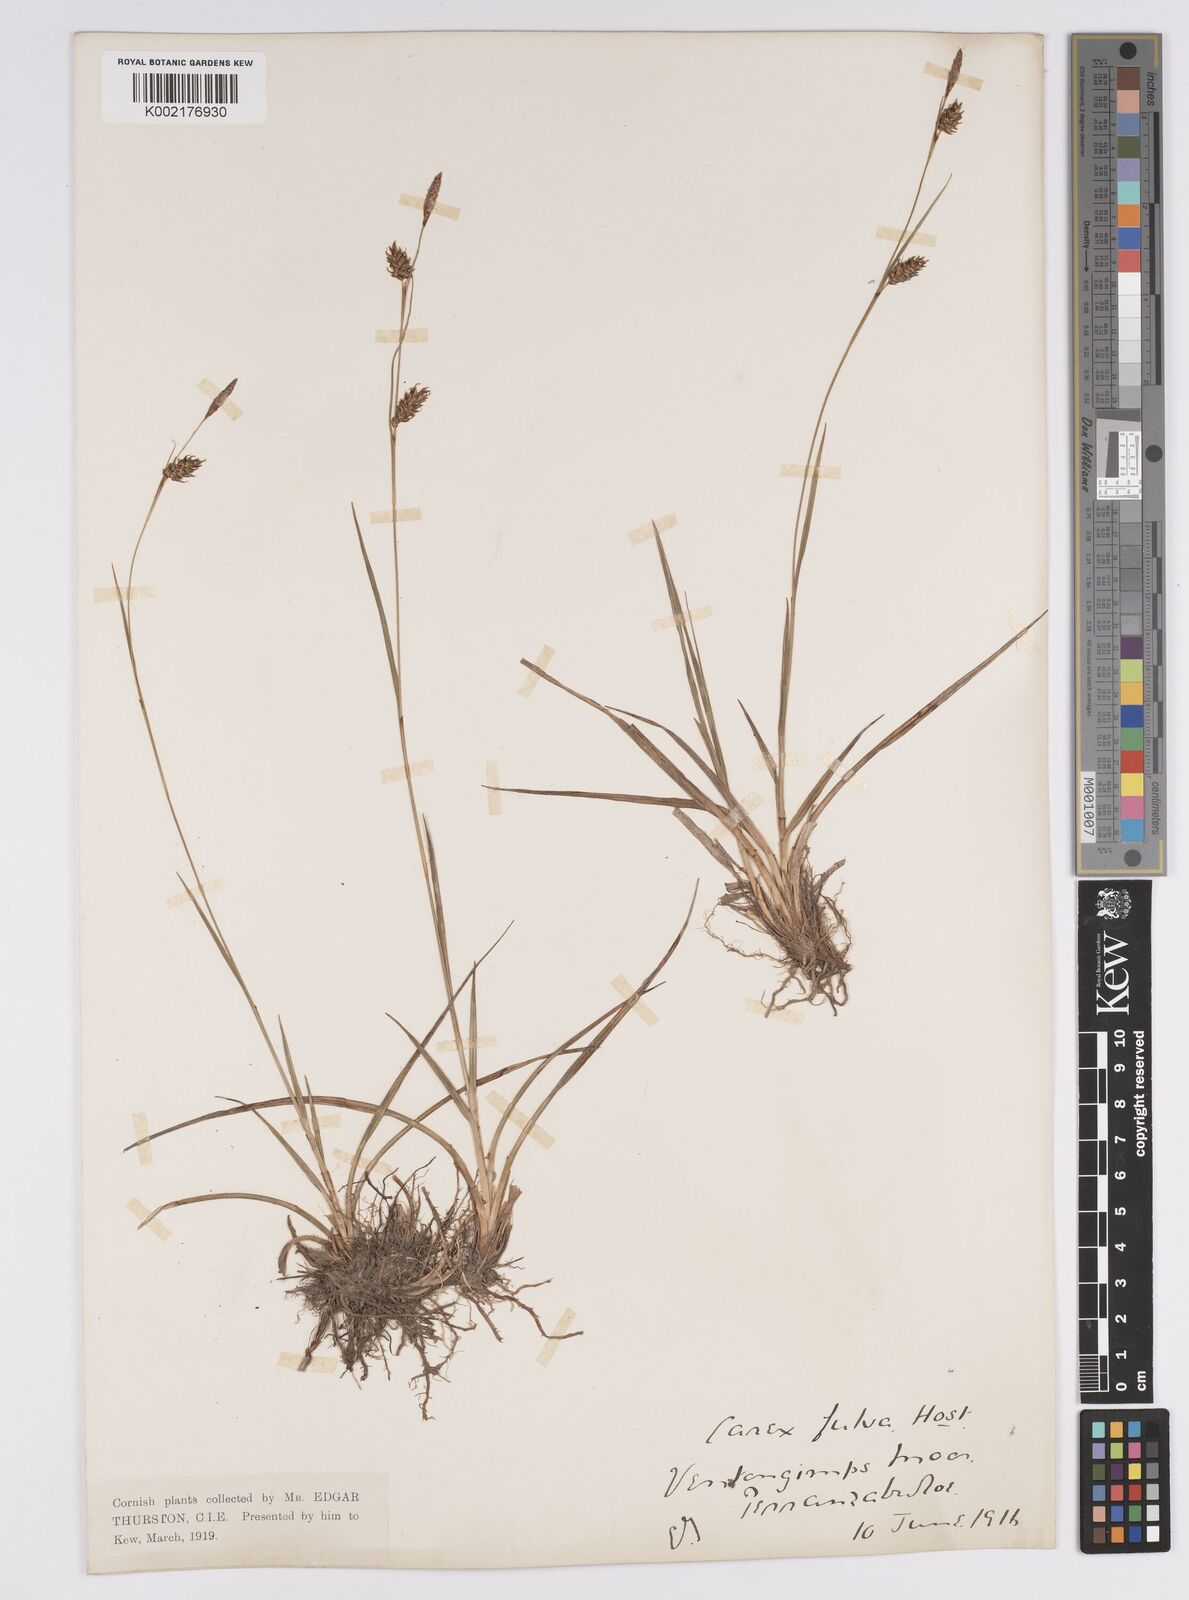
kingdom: Plantae
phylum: Tracheophyta
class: Liliopsida
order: Poales
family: Cyperaceae
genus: Carex
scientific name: Carex hostiana
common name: Tawny sedge
